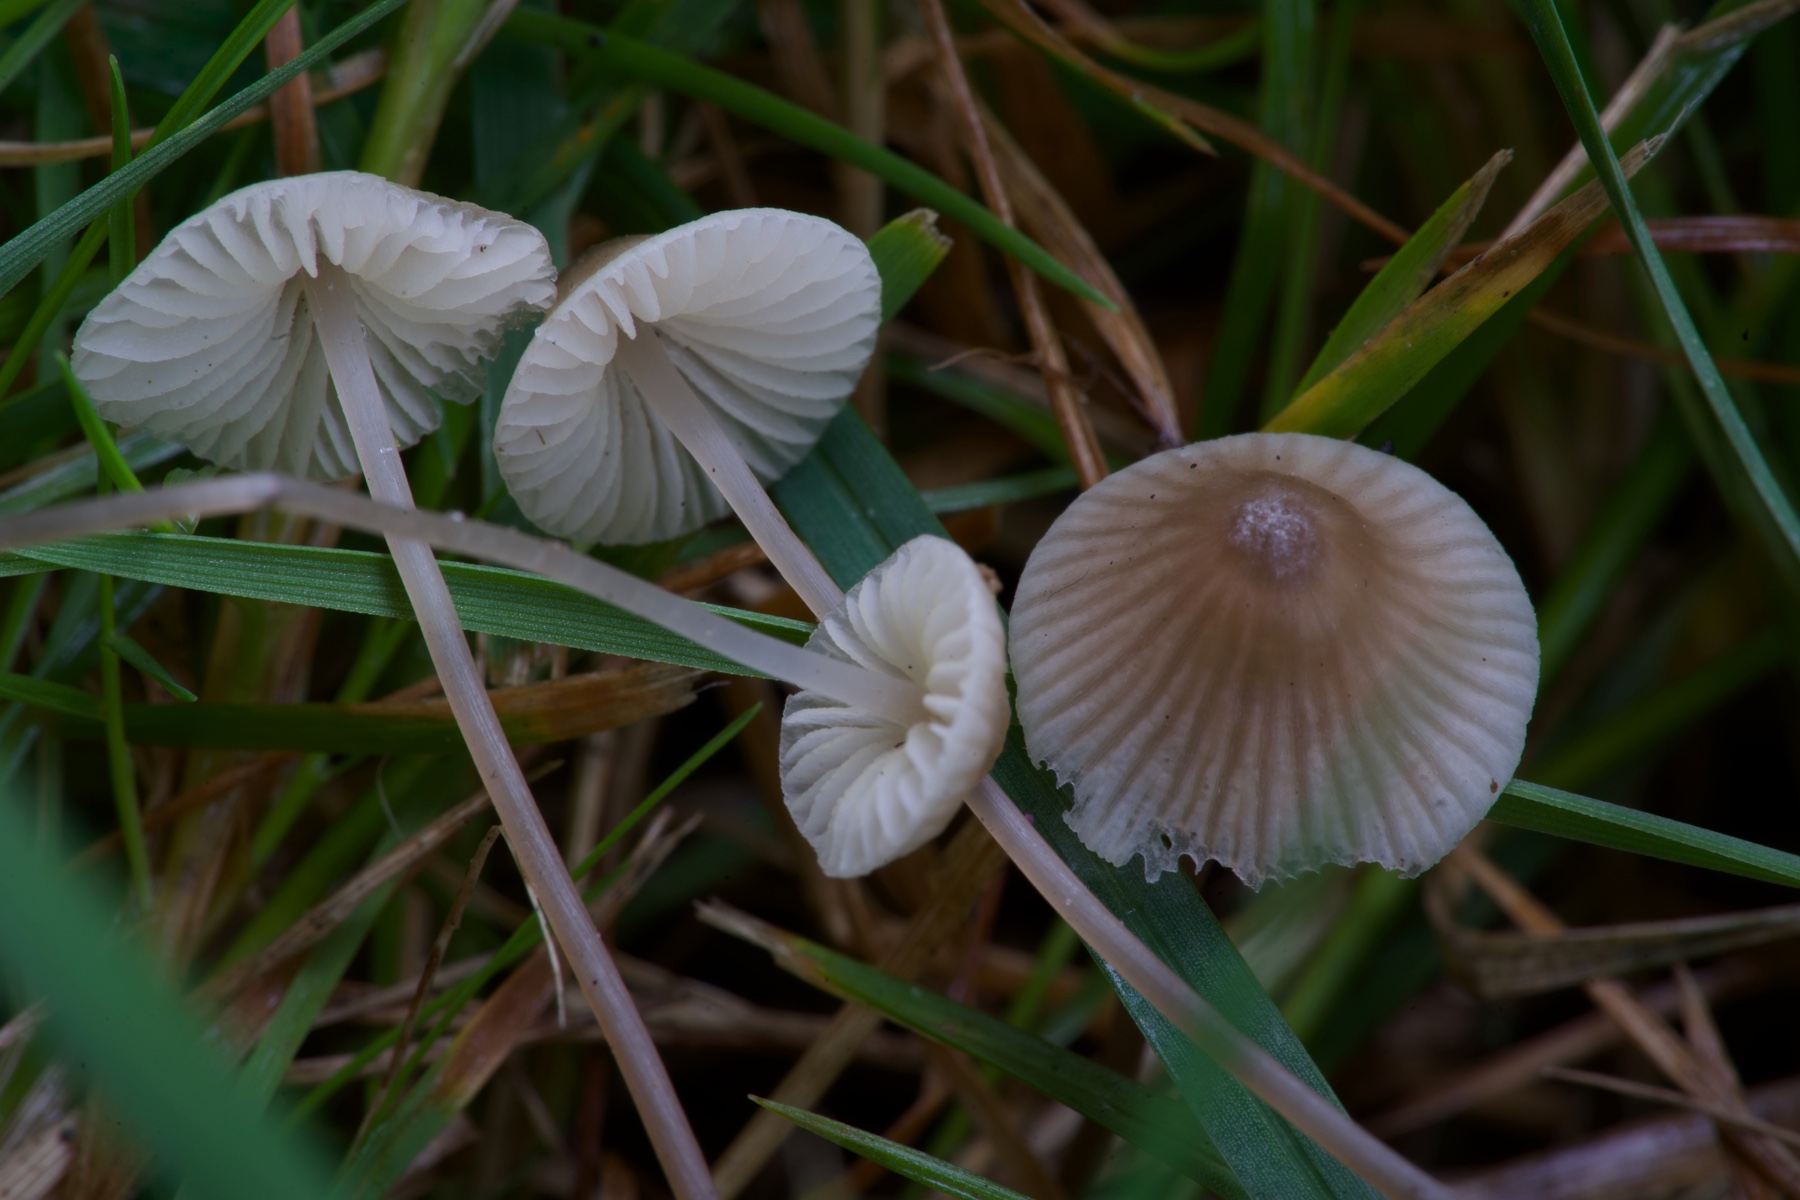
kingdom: Fungi
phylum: Basidiomycota
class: Agaricomycetes
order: Agaricales
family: Mycenaceae
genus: Mycena
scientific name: Mycena flavescens
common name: grågul huesvamp
